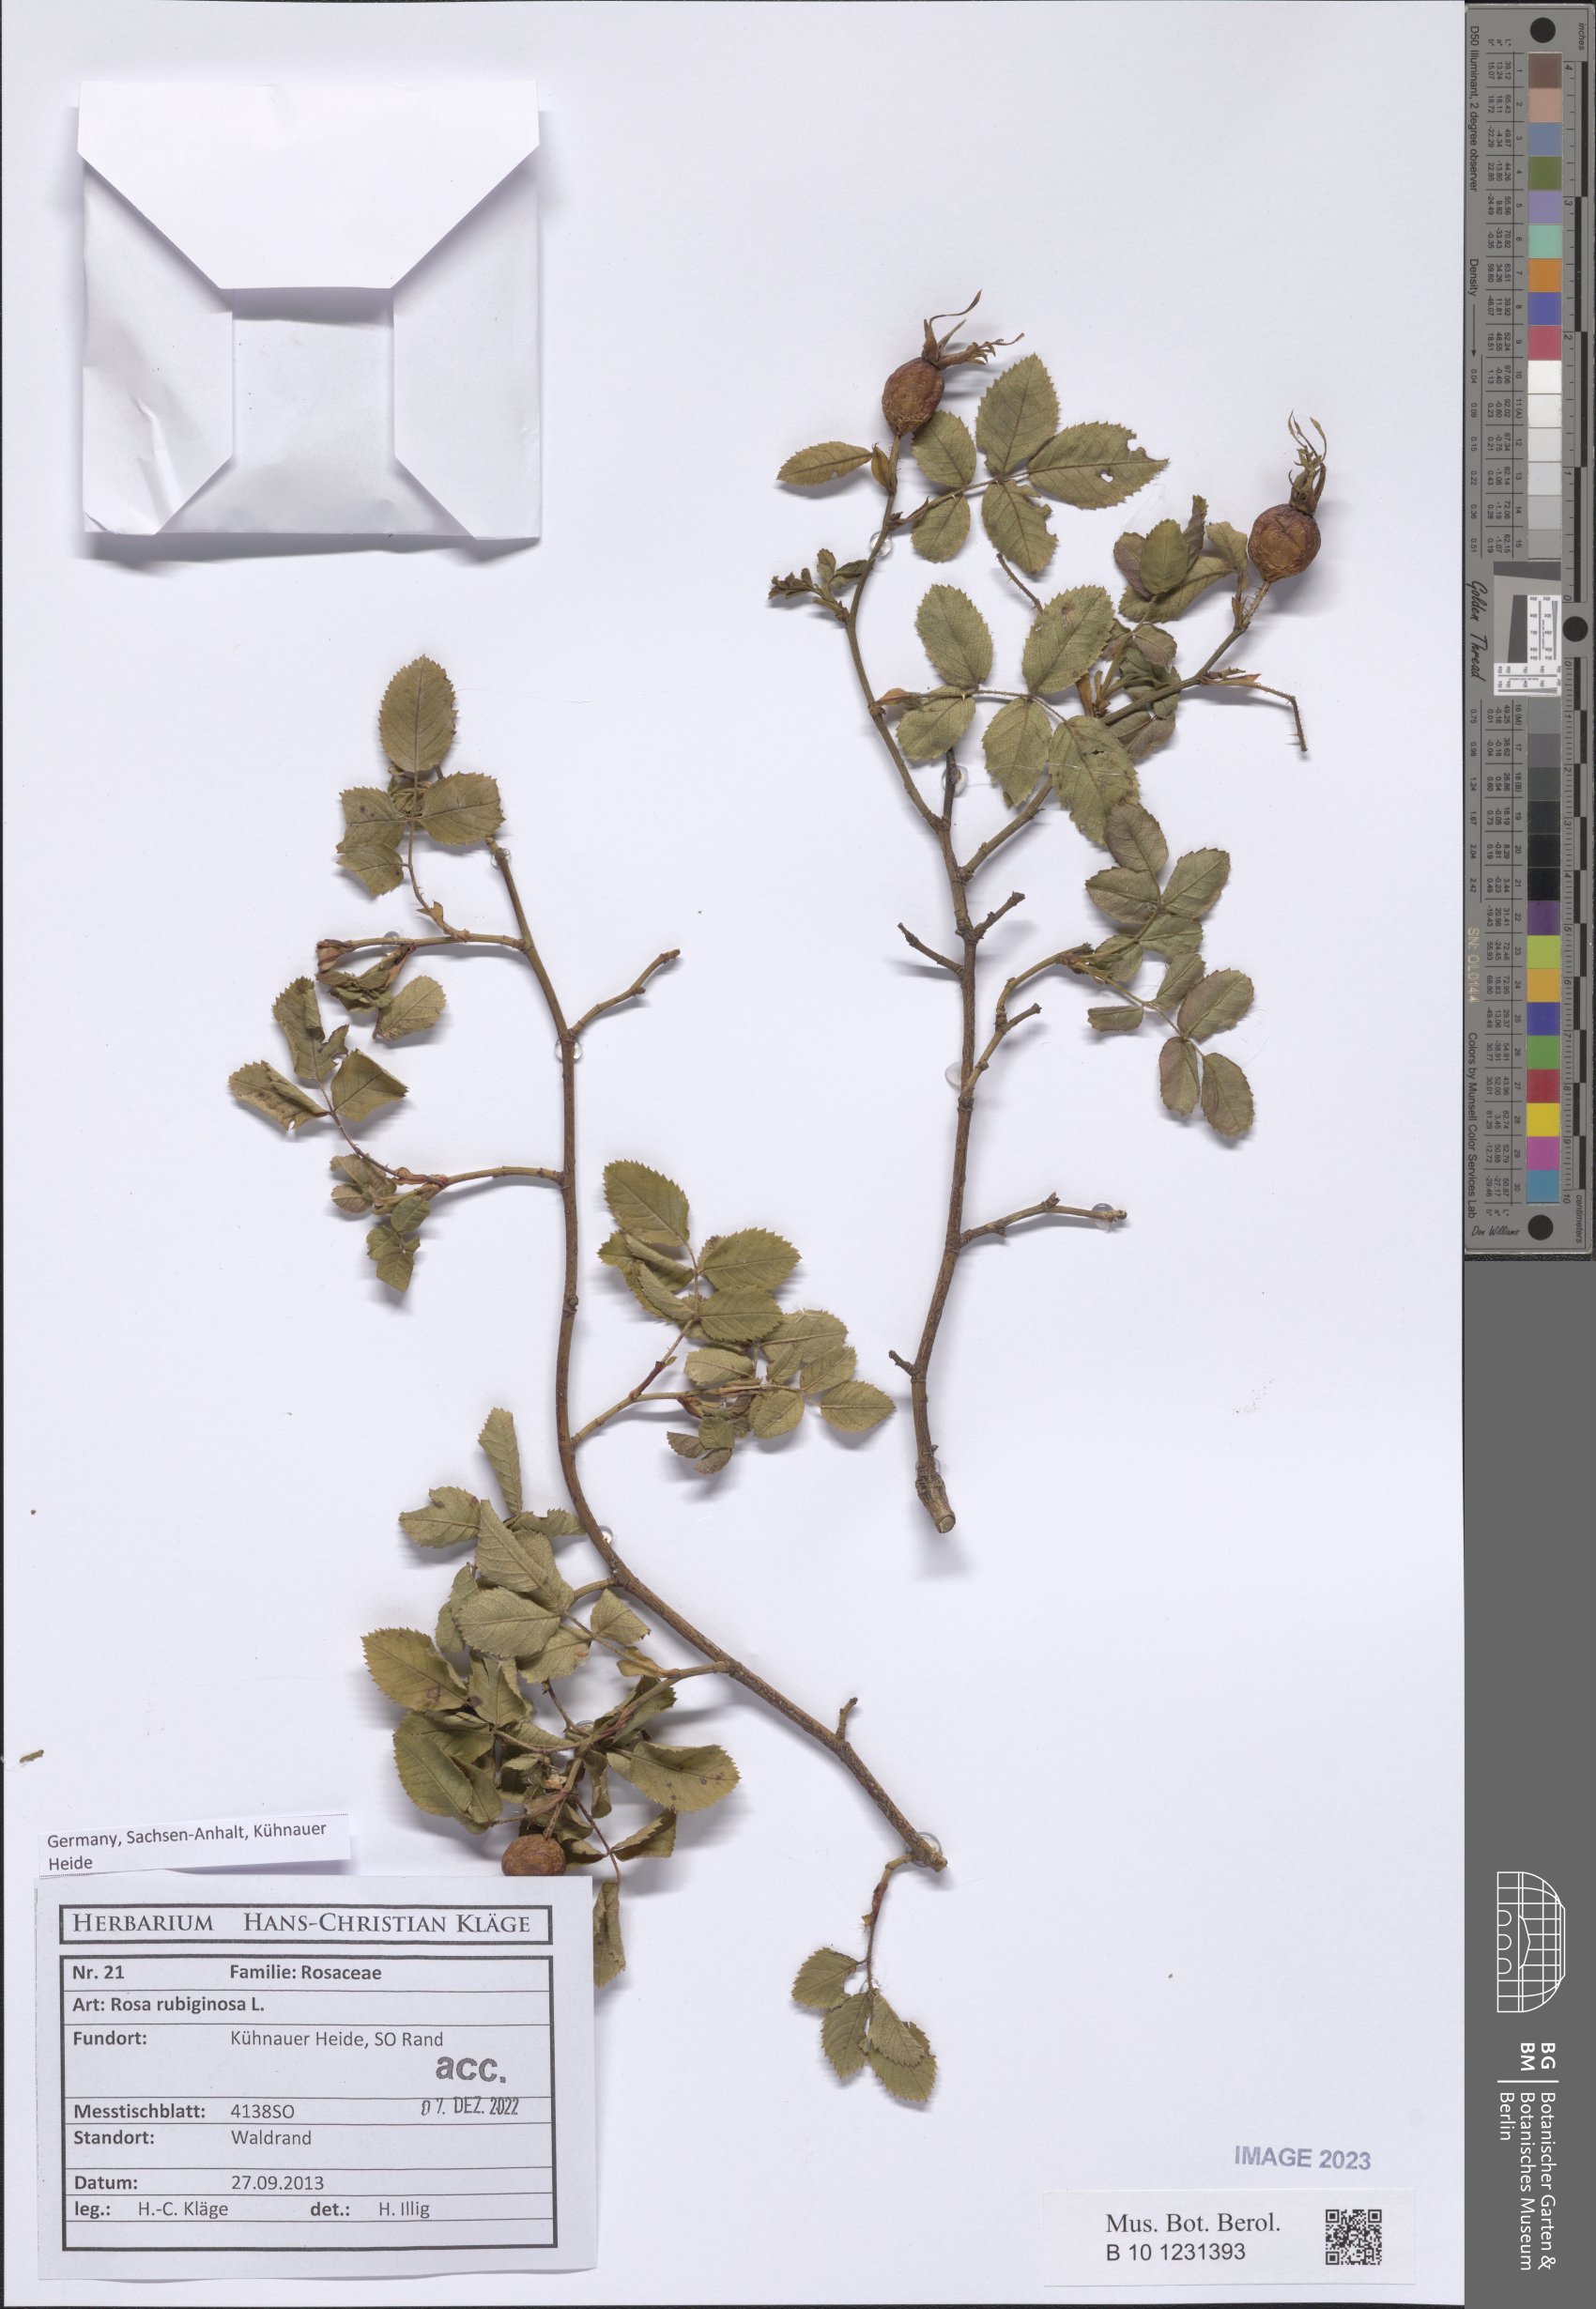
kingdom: Plantae
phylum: Tracheophyta
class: Magnoliopsida
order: Rosales
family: Rosaceae
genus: Rosa
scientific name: Rosa rubiginosa
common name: Sweet-briar
